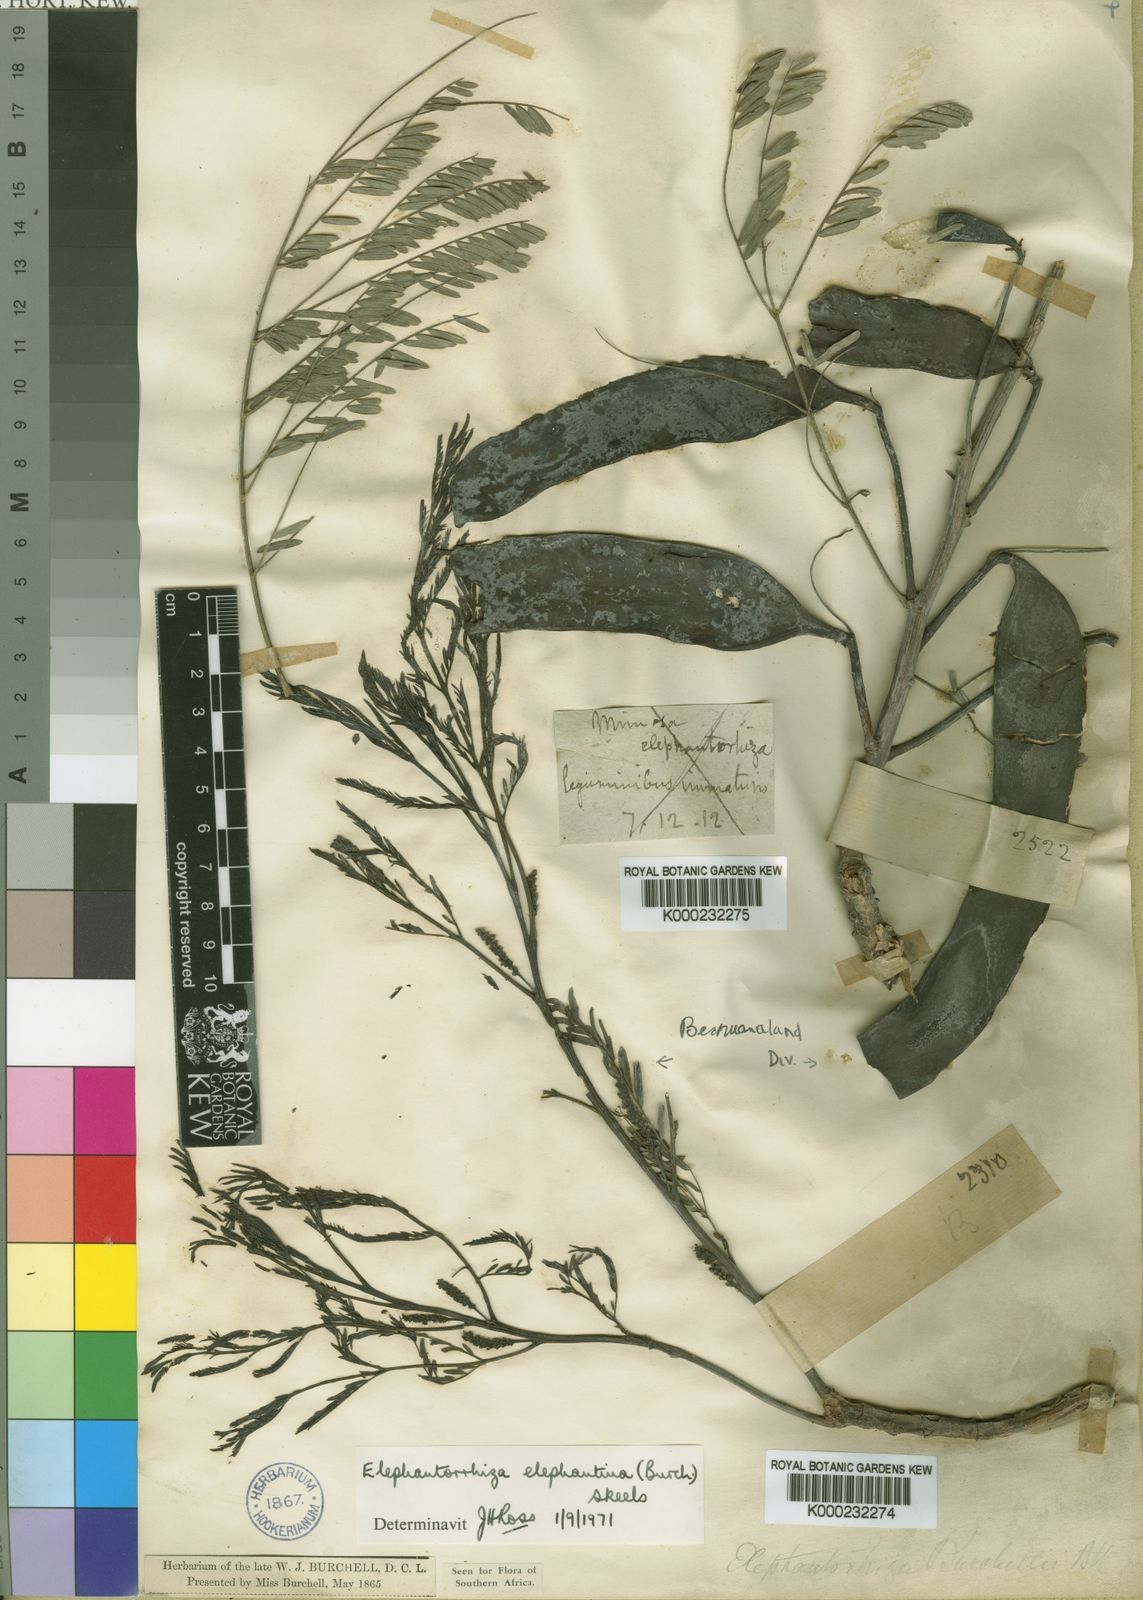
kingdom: Plantae
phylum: Tracheophyta
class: Magnoliopsida
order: Fabales
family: Fabaceae
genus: Elephantorrhiza
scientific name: Elephantorrhiza elephantina
